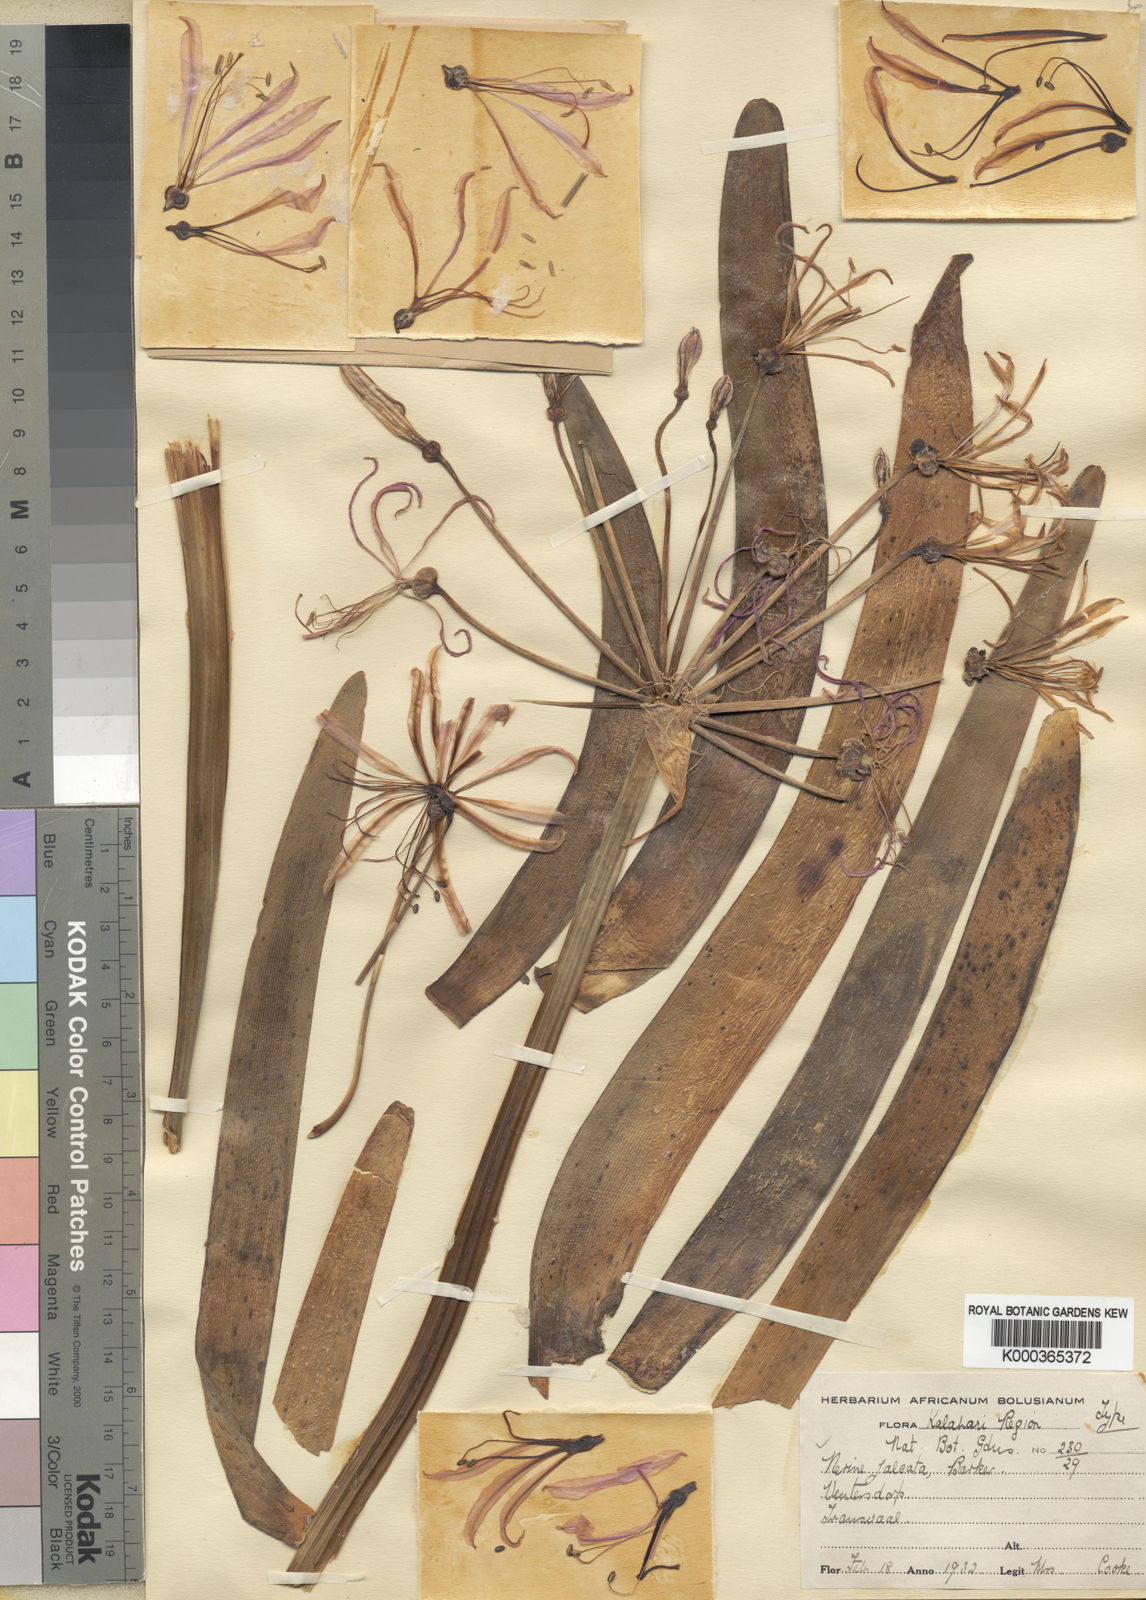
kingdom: Plantae
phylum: Tracheophyta
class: Liliopsida
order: Asparagales
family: Amaryllidaceae
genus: Nerine
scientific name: Nerine krigei
